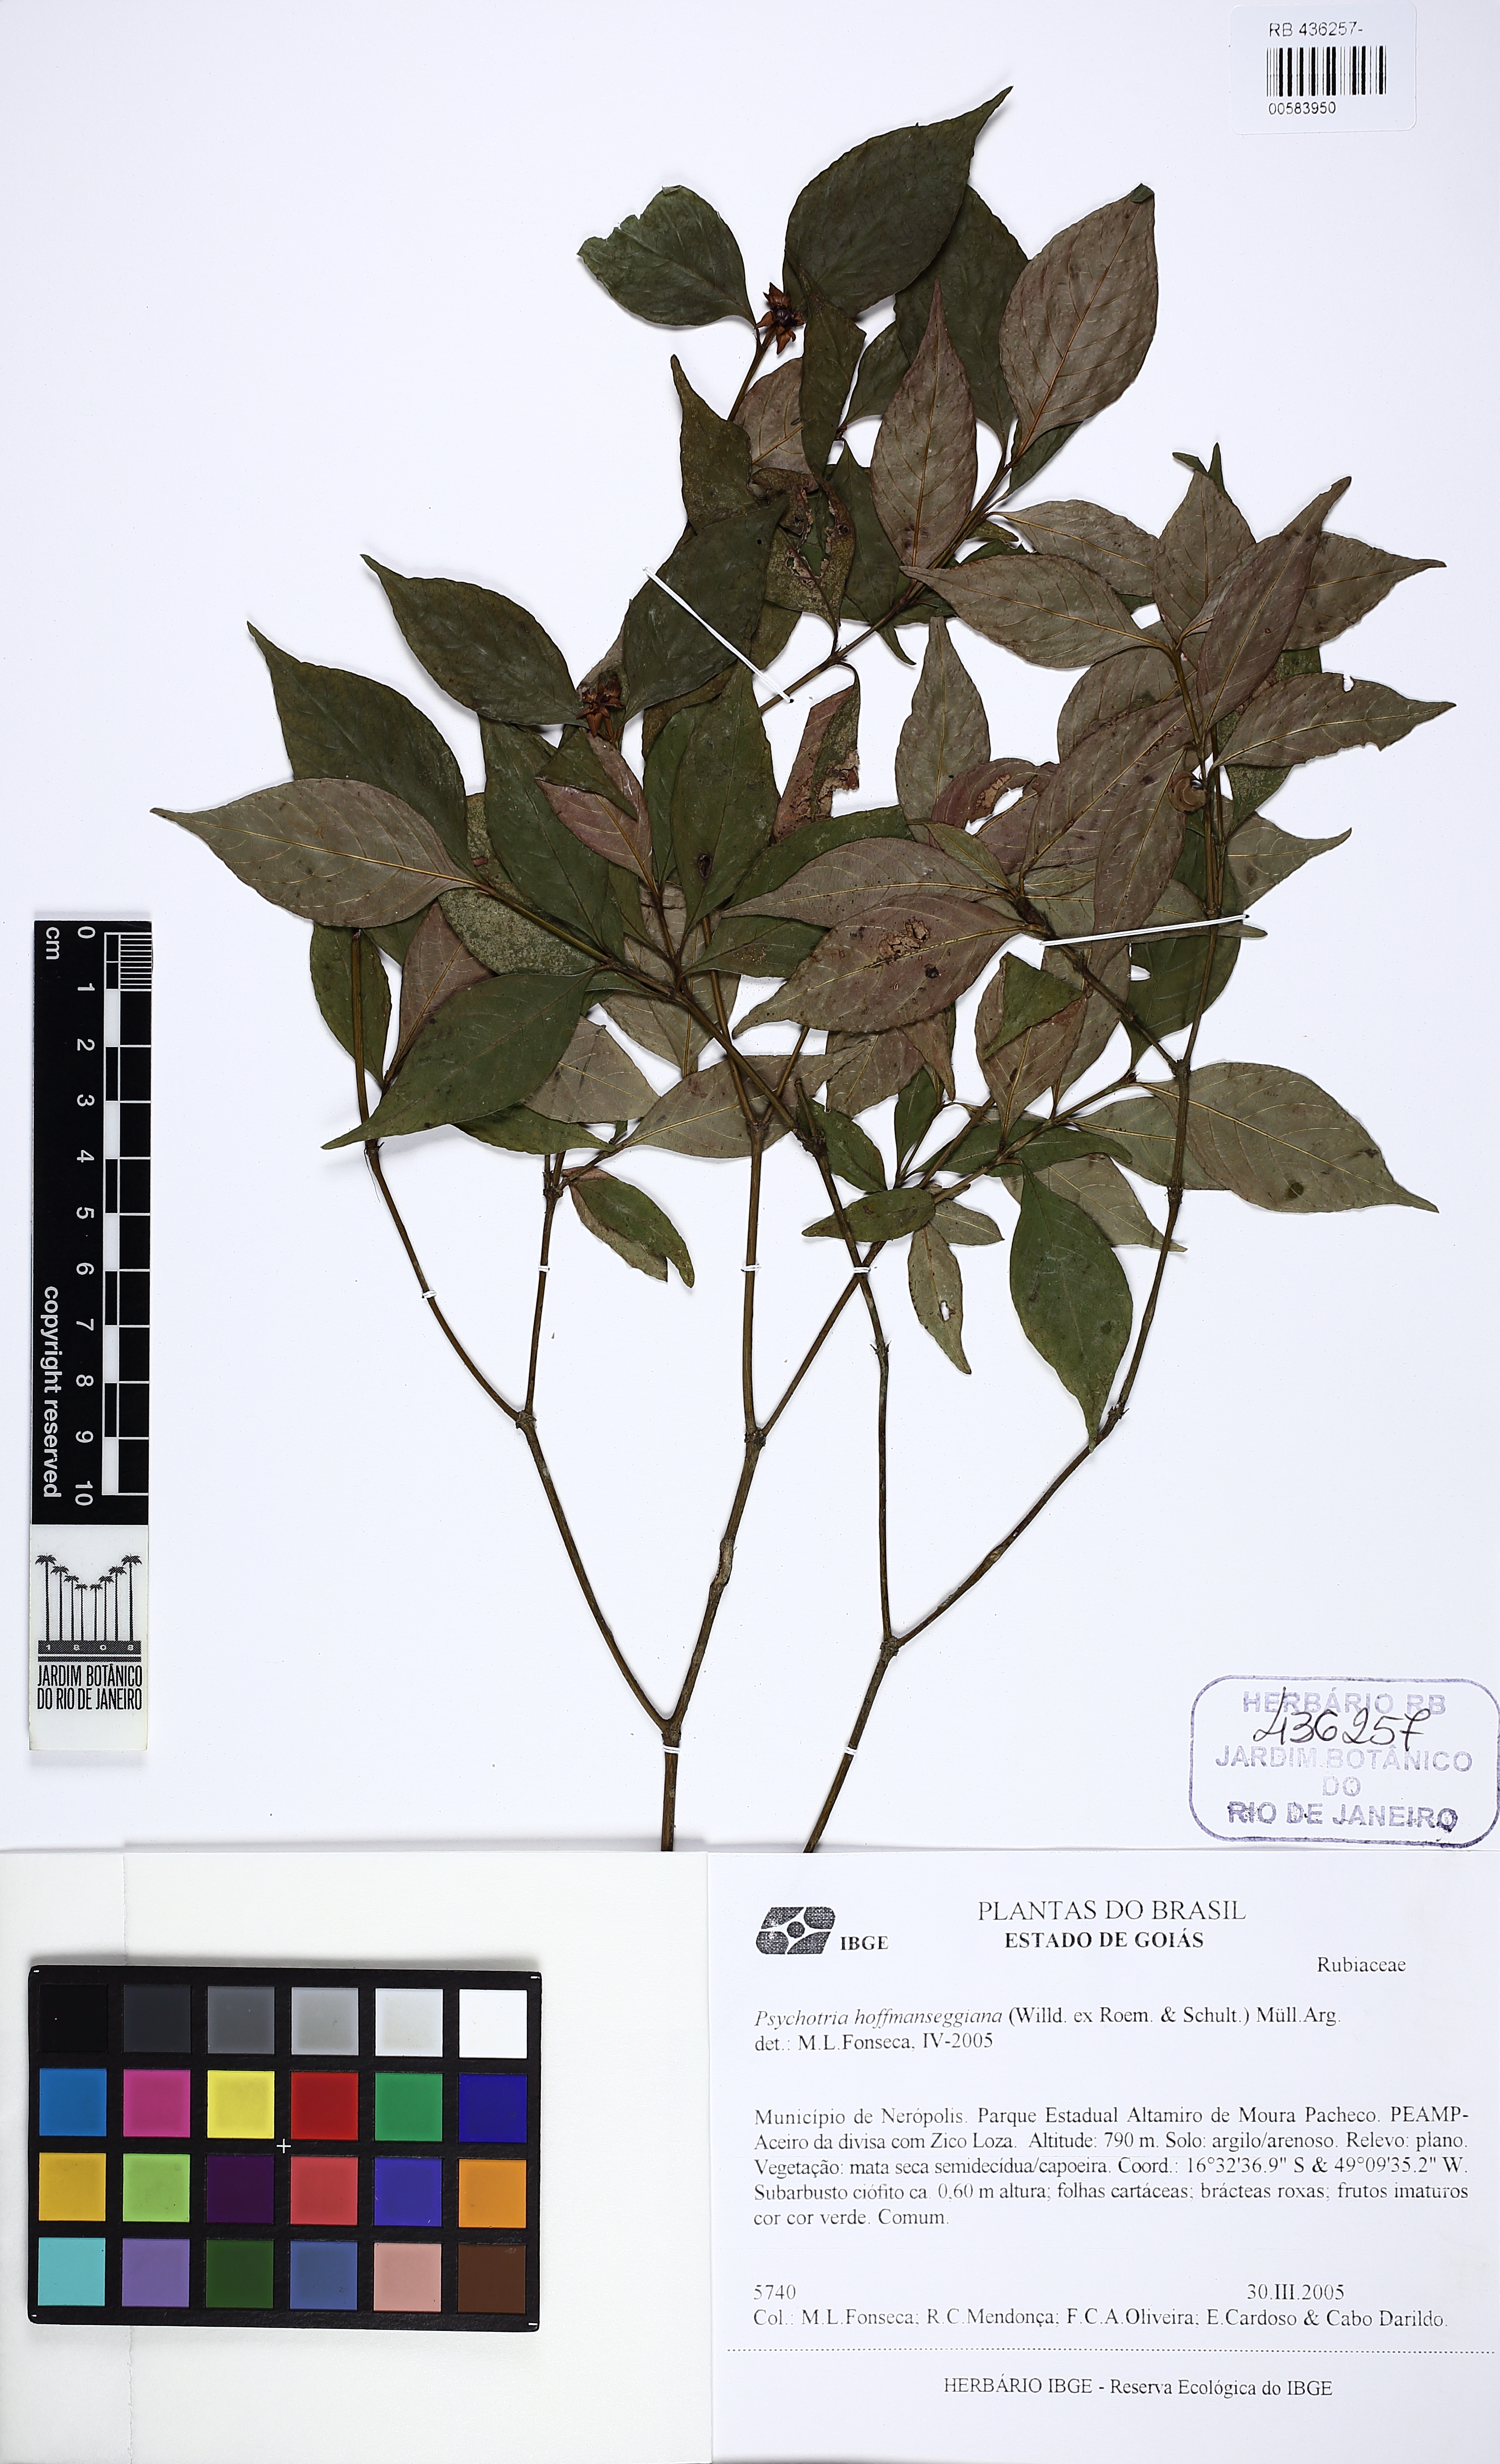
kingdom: Plantae
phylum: Tracheophyta
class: Magnoliopsida
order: Gentianales
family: Rubiaceae
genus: Palicourea
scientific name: Palicourea hoffmannseggiana
